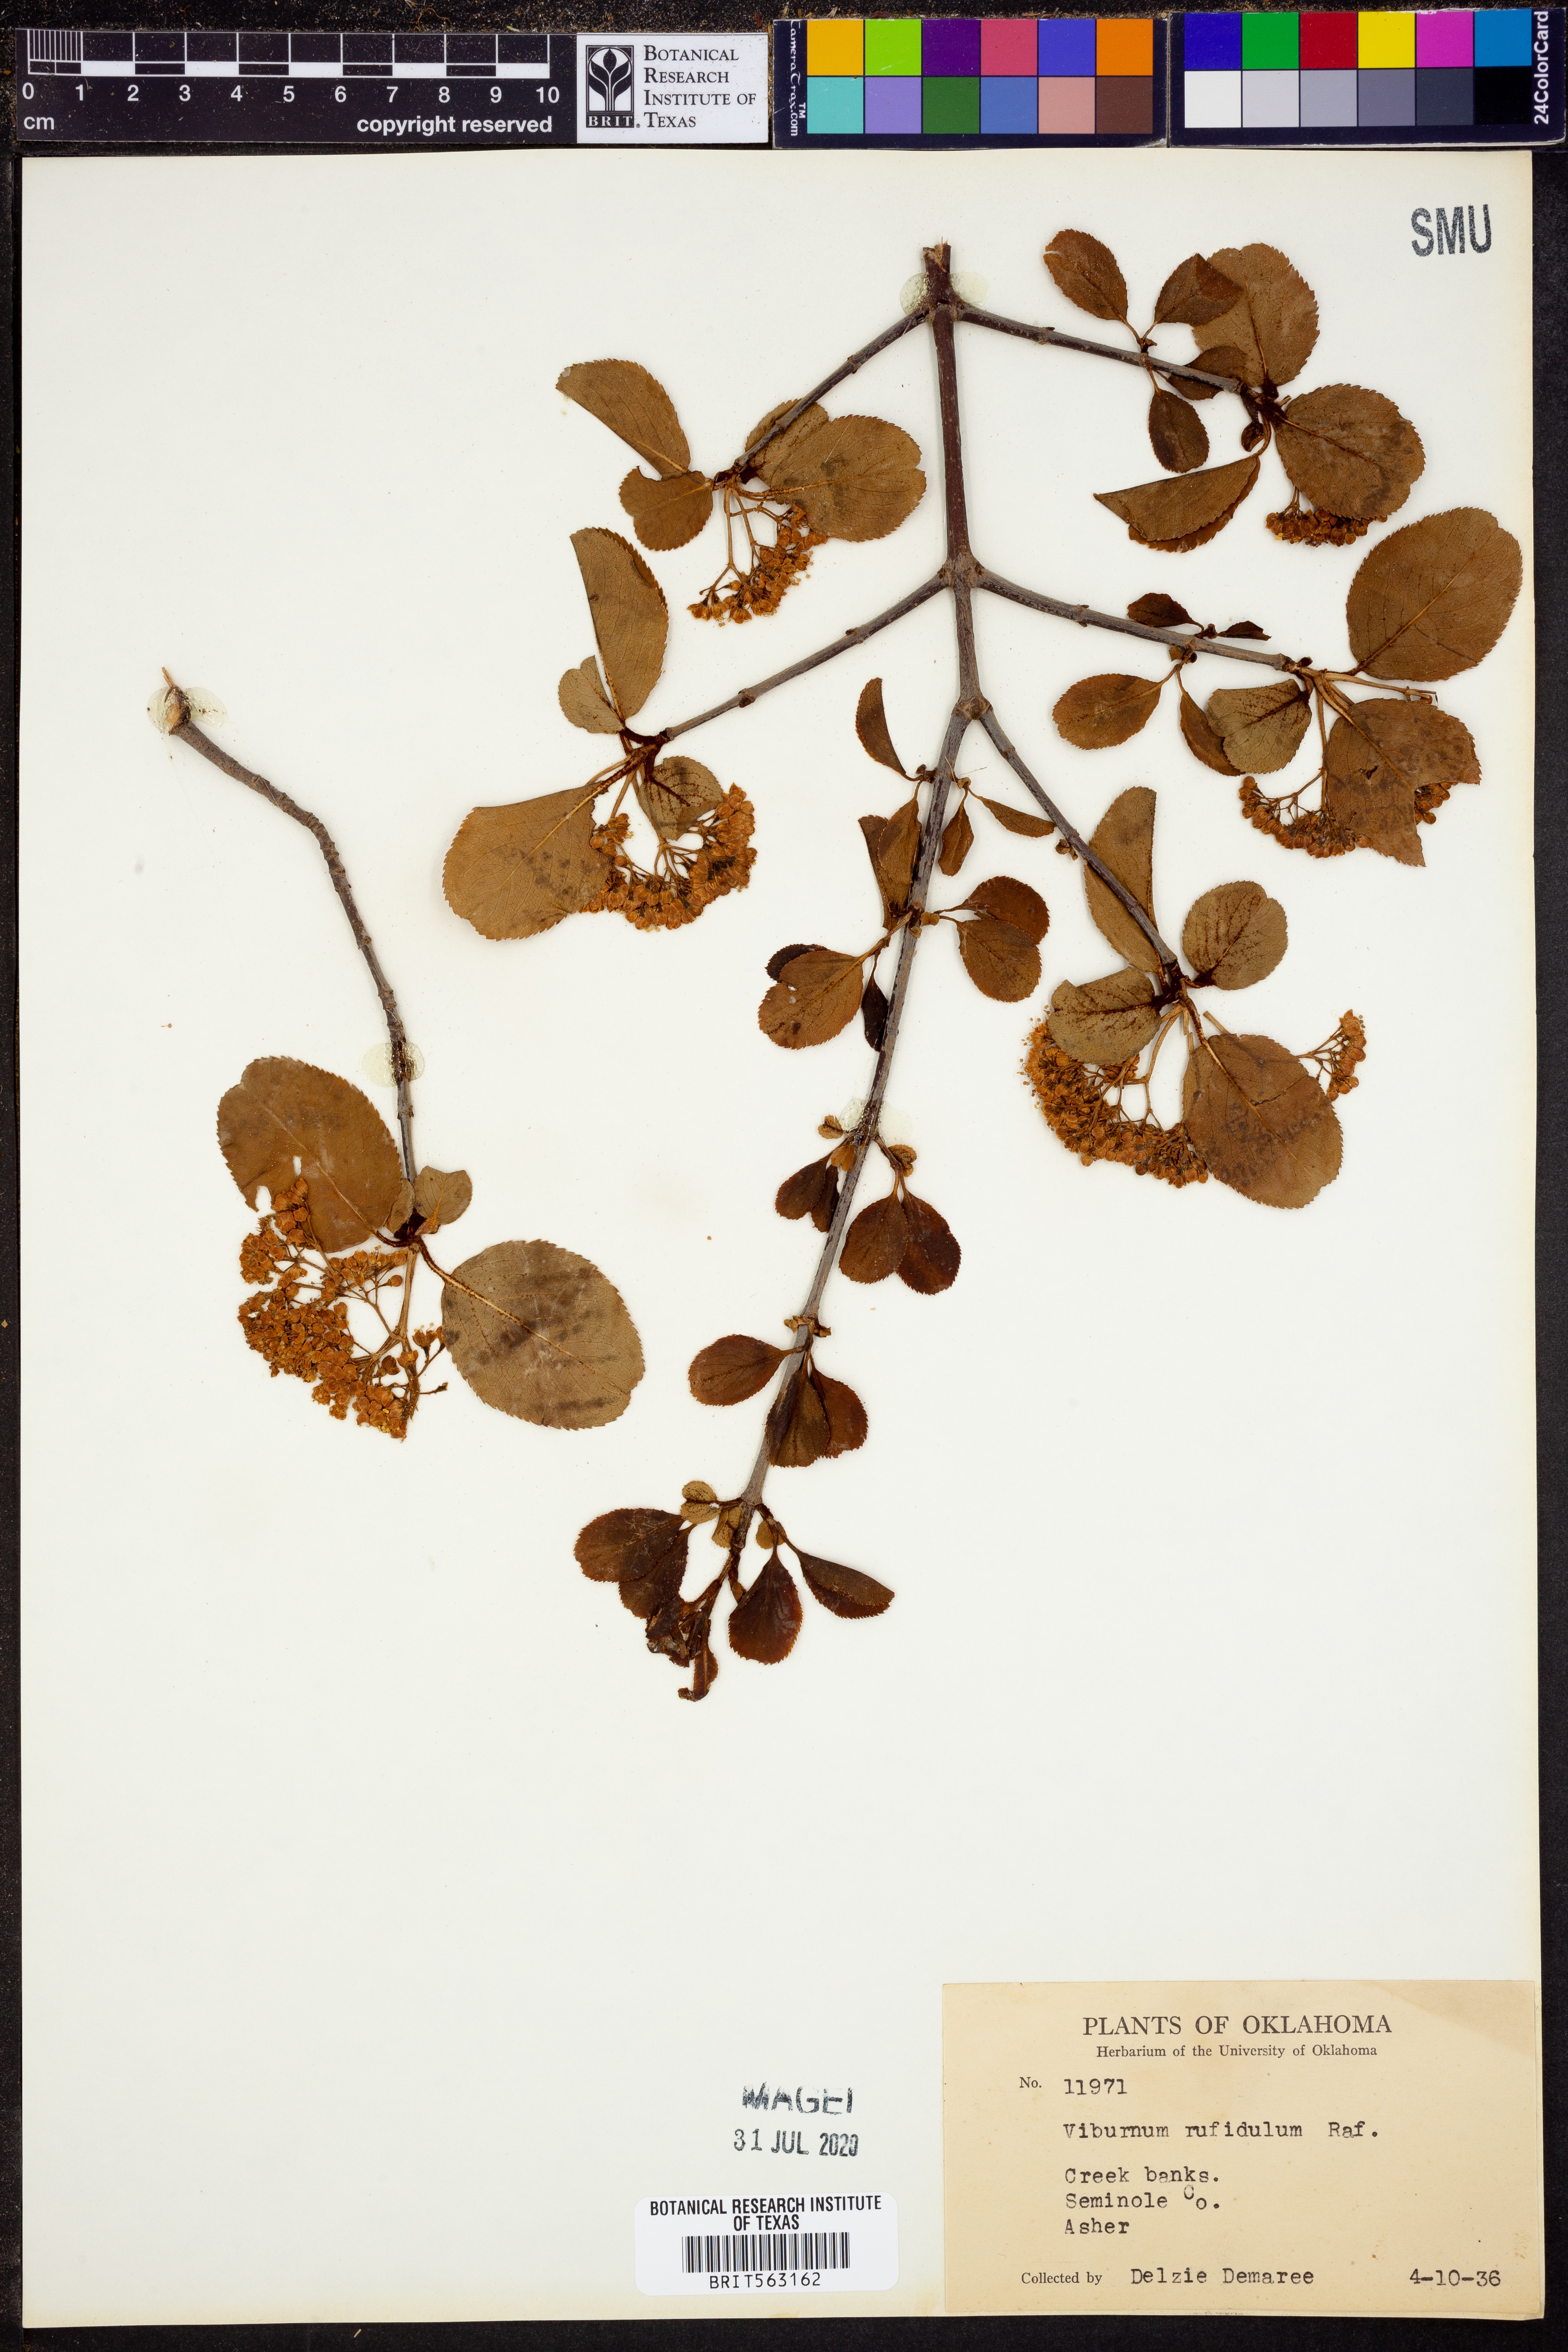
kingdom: Plantae
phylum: Tracheophyta
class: Magnoliopsida
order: Dipsacales
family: Viburnaceae
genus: Viburnum
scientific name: Viburnum rufidulum
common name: Blue haw
